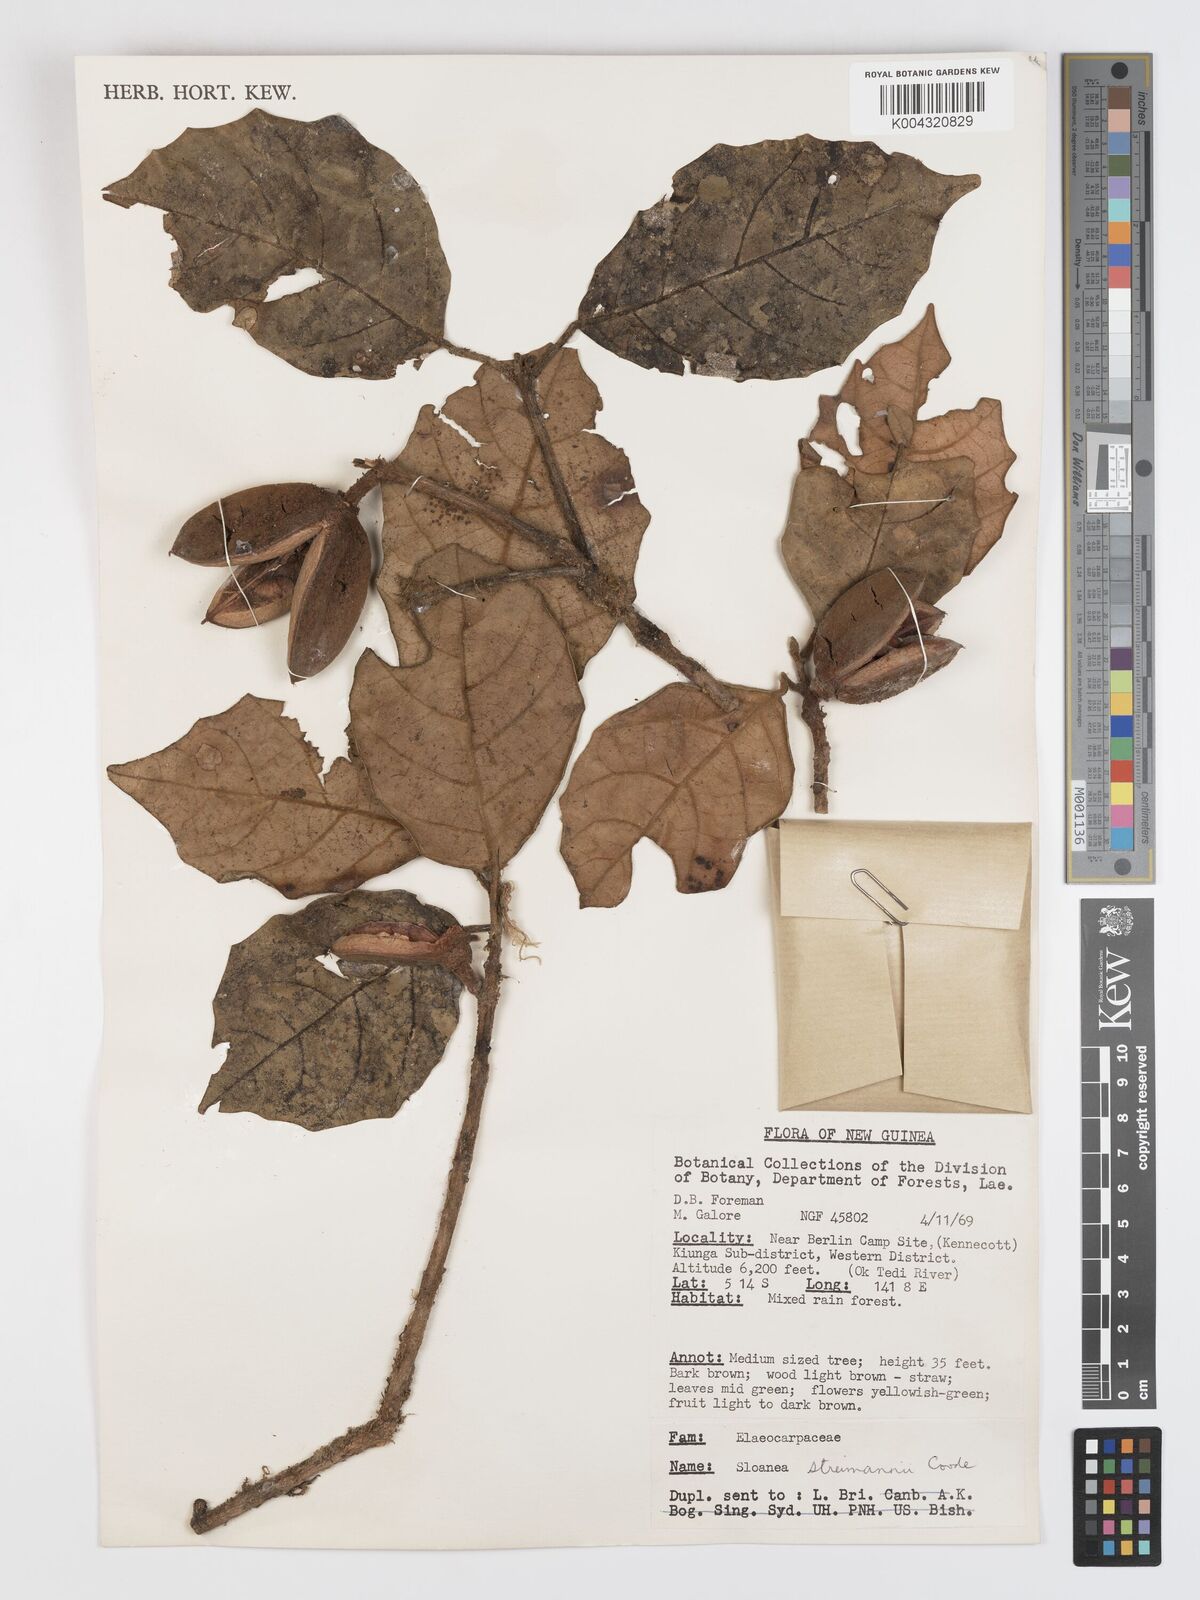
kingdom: Plantae
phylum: Tracheophyta
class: Magnoliopsida
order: Oxalidales
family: Elaeocarpaceae
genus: Sloanea
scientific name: Sloanea streimannii
